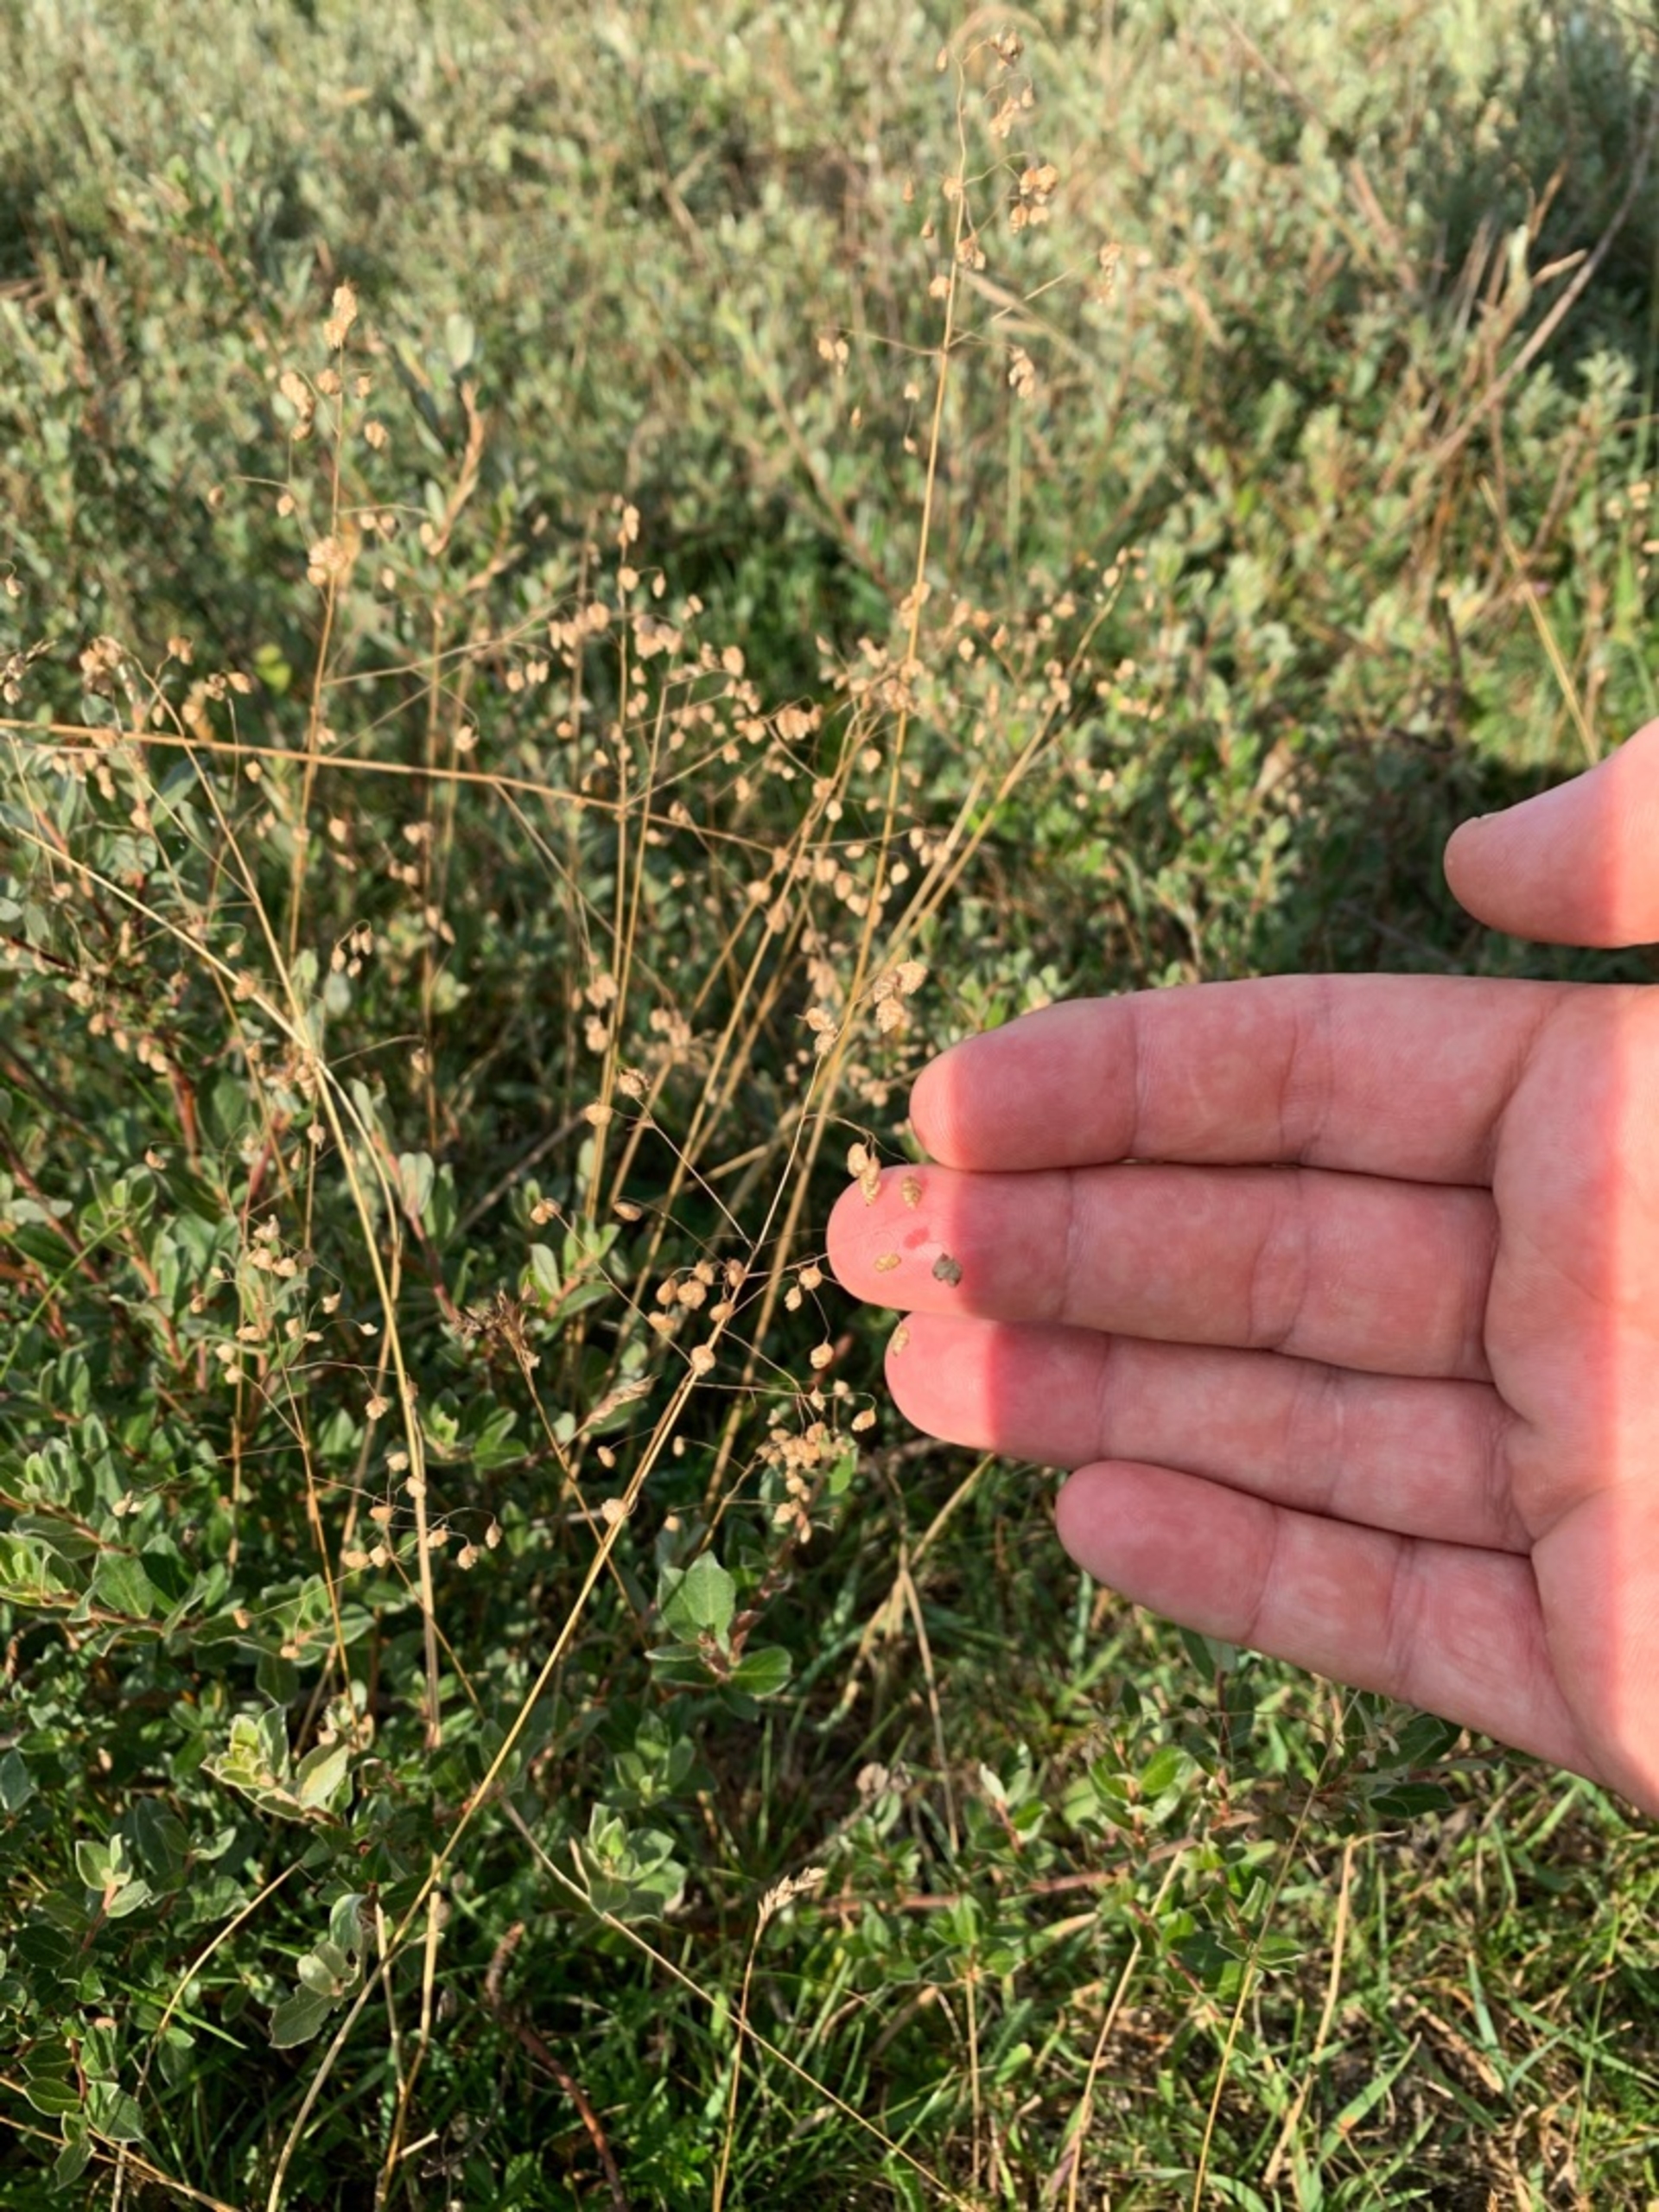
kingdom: Plantae
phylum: Tracheophyta
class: Liliopsida
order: Poales
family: Poaceae
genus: Briza
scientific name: Briza media
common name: Hjertegræs
